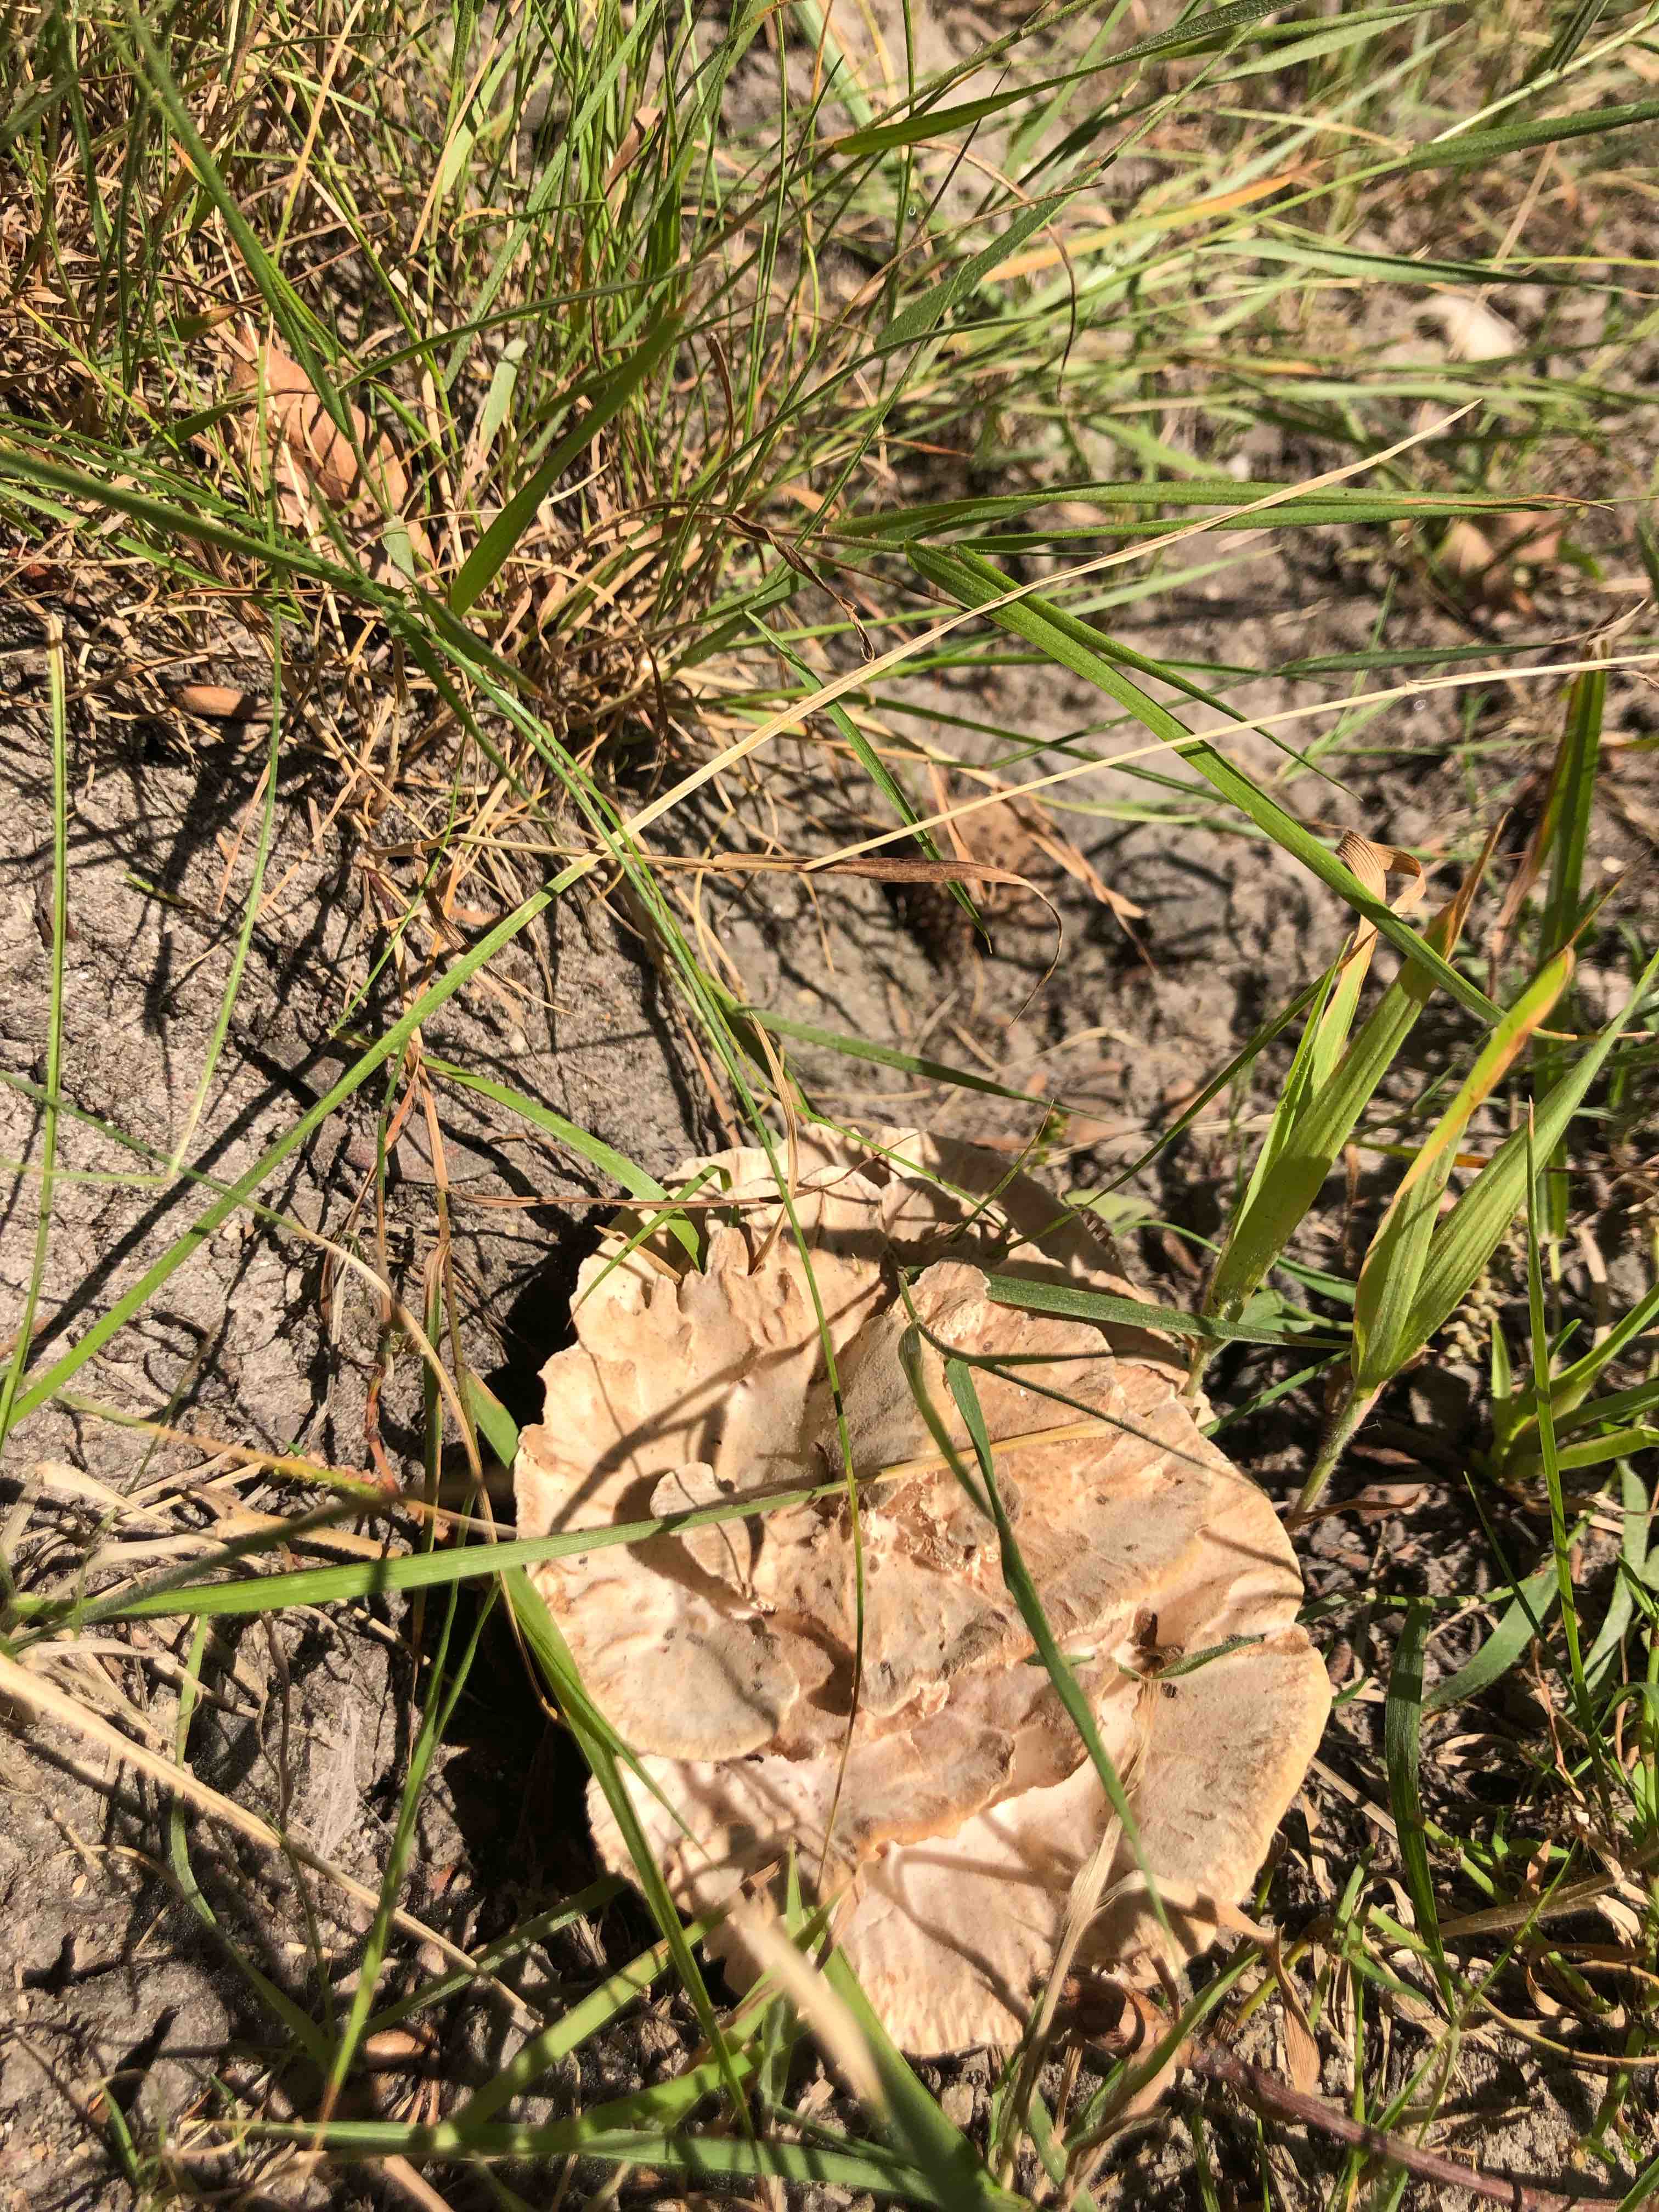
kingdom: Fungi
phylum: Basidiomycota
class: Agaricomycetes
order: Polyporales
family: Podoscyphaceae
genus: Abortiporus
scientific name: Abortiporus biennis
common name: rødmende pjalteporesvamp
